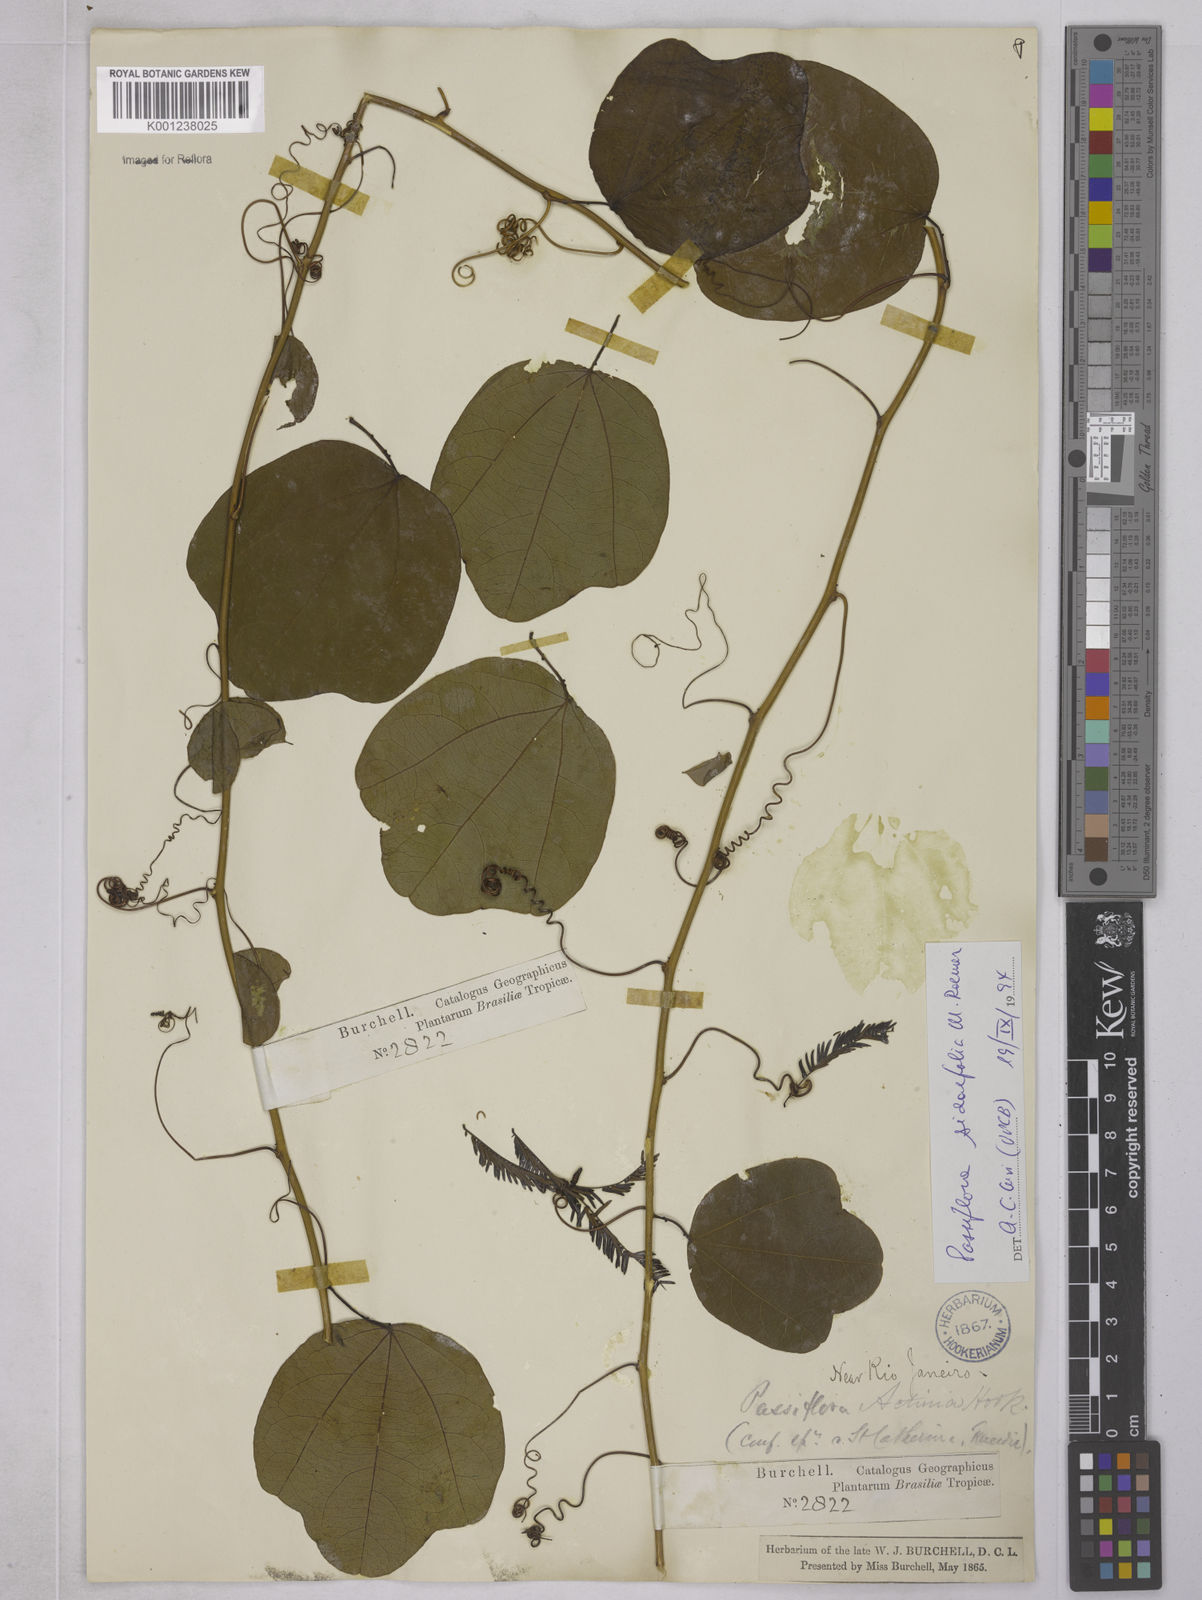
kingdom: Plantae
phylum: Tracheophyta
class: Magnoliopsida
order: Malpighiales
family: Passifloraceae
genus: Passiflora
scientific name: Passiflora tetraden
